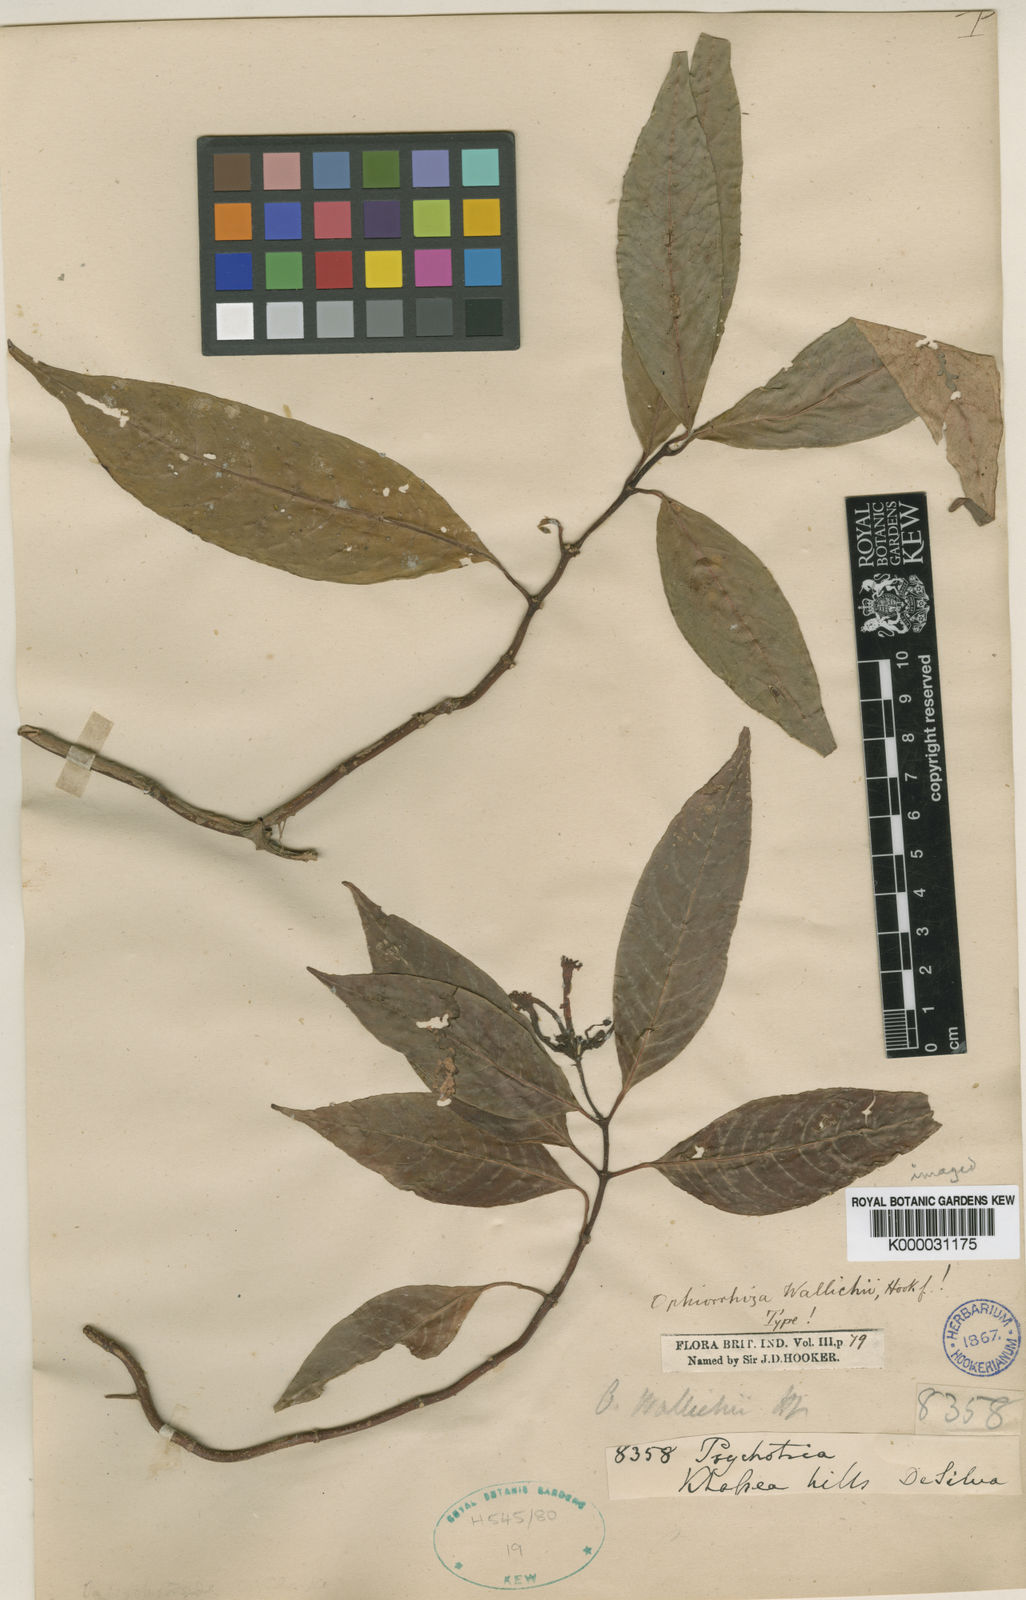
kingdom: Plantae
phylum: Tracheophyta
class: Magnoliopsida
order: Gentianales
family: Rubiaceae
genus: Ophiorrhiza
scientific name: Ophiorrhiza
